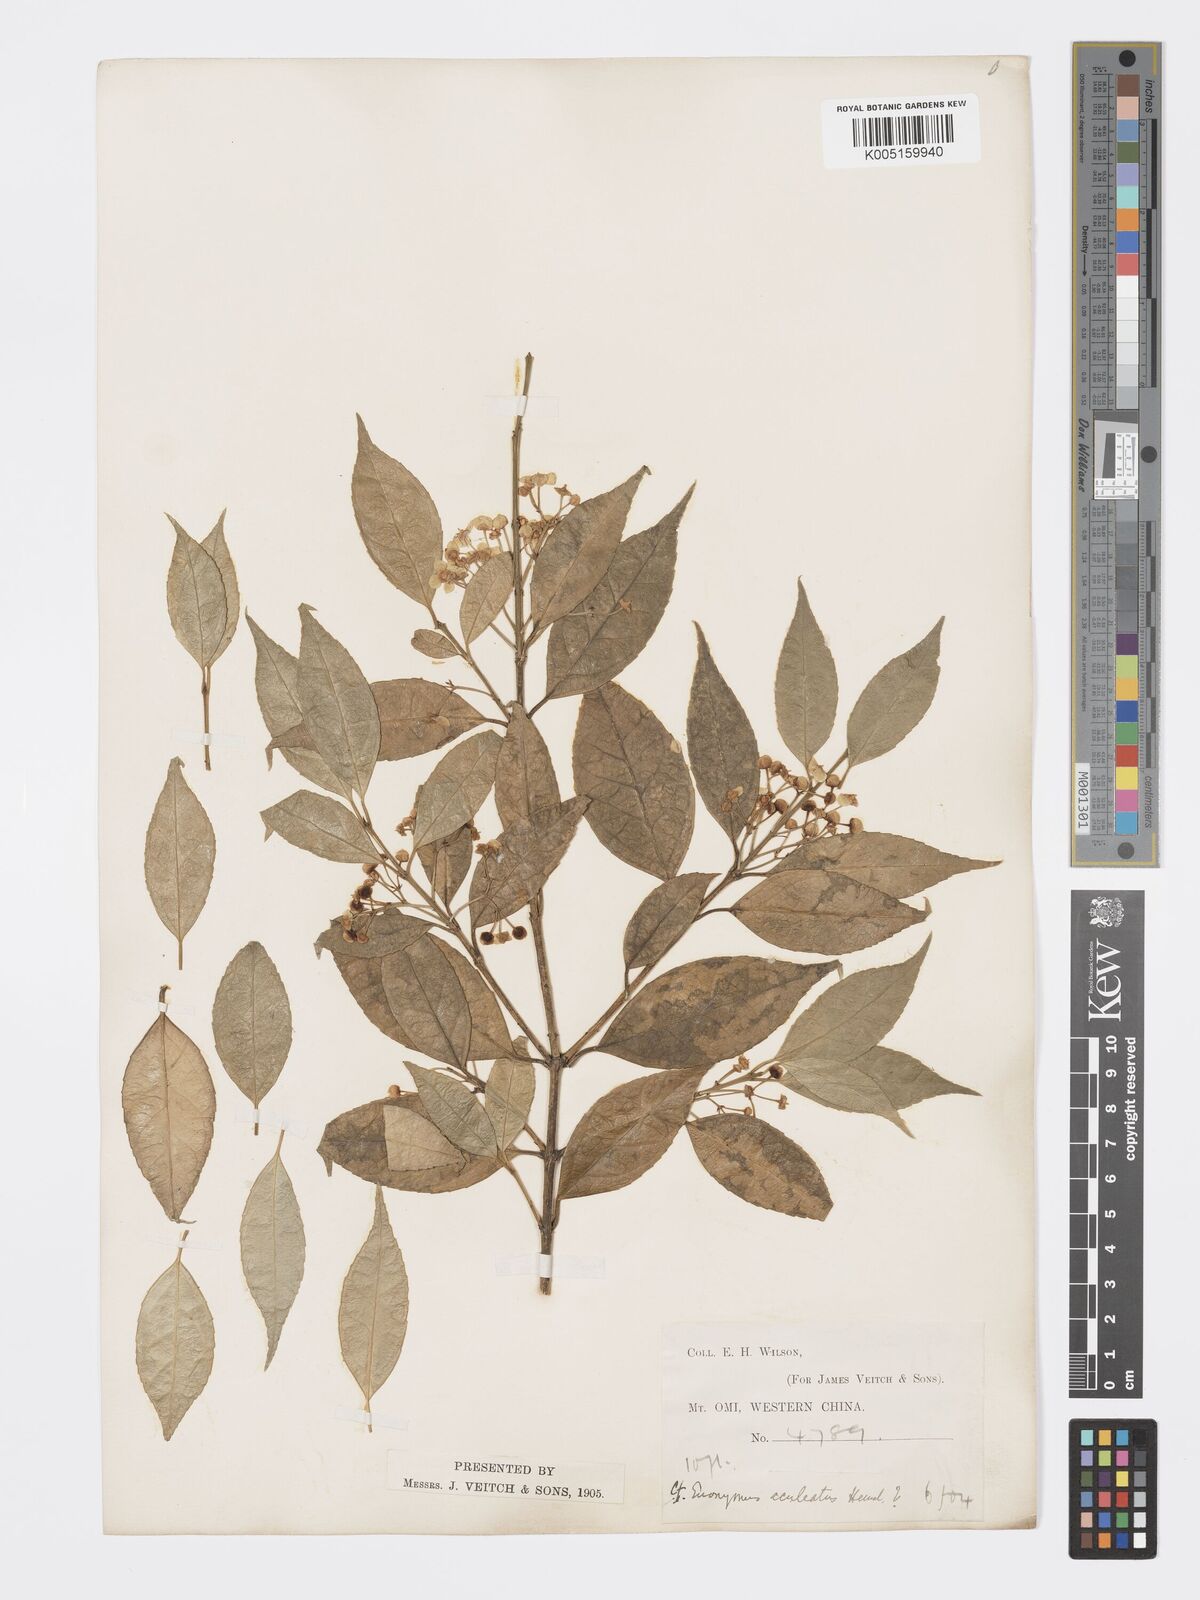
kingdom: Plantae
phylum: Tracheophyta
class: Magnoliopsida
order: Celastrales
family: Celastraceae
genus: Euonymus
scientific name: Euonymus aculeatus
